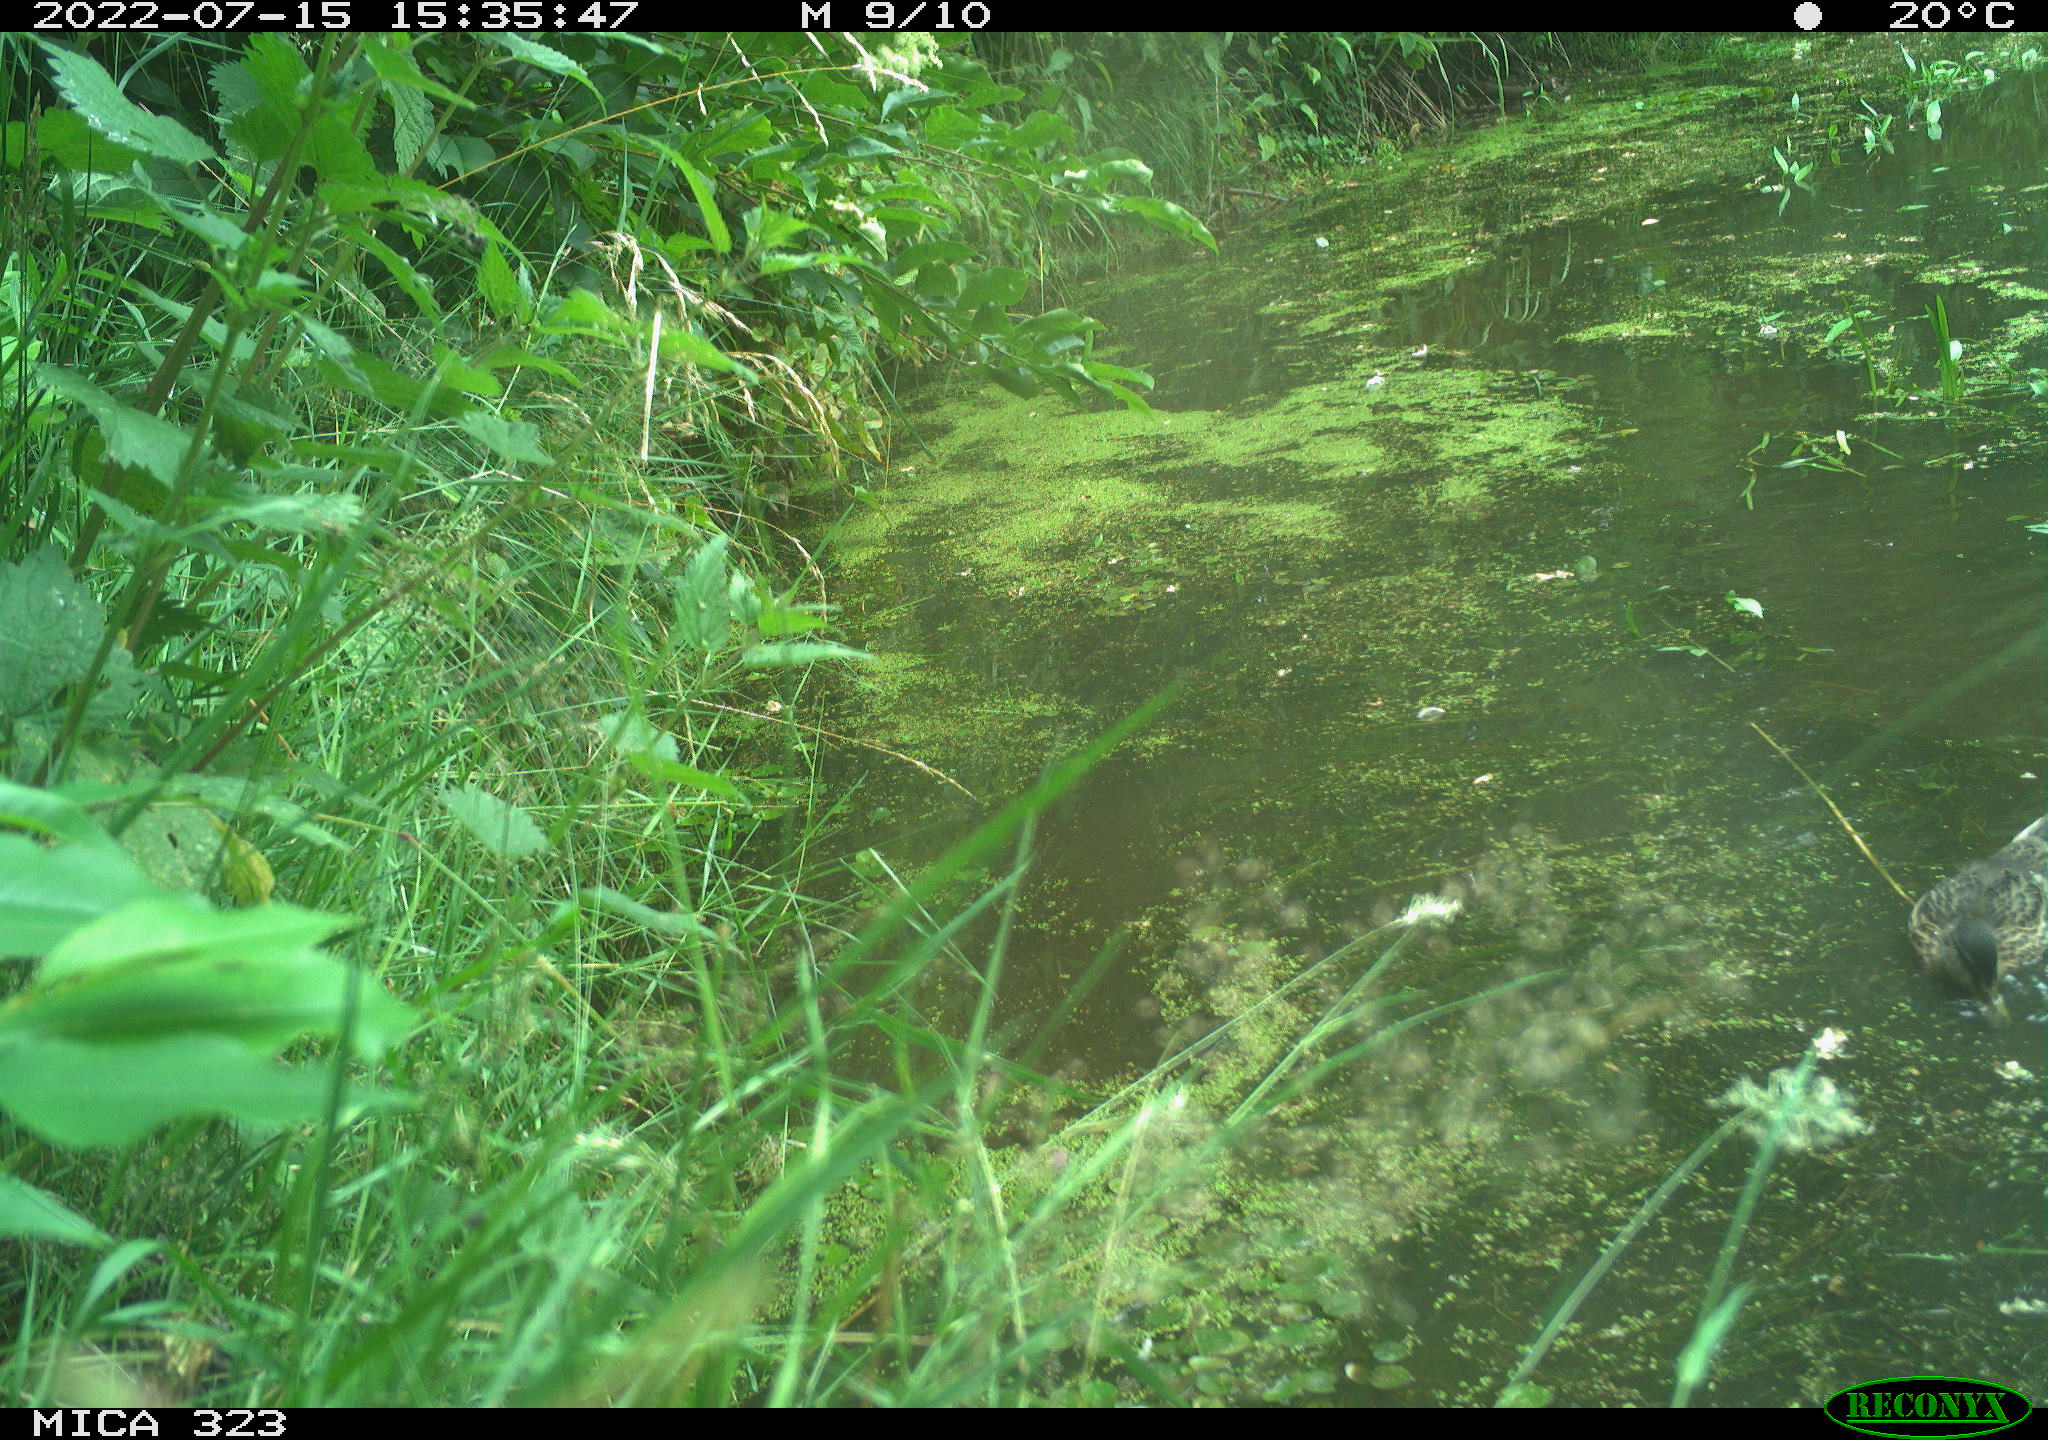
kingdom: Animalia
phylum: Chordata
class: Aves
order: Anseriformes
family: Anatidae
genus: Anas
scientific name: Anas platyrhynchos
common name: Mallard
